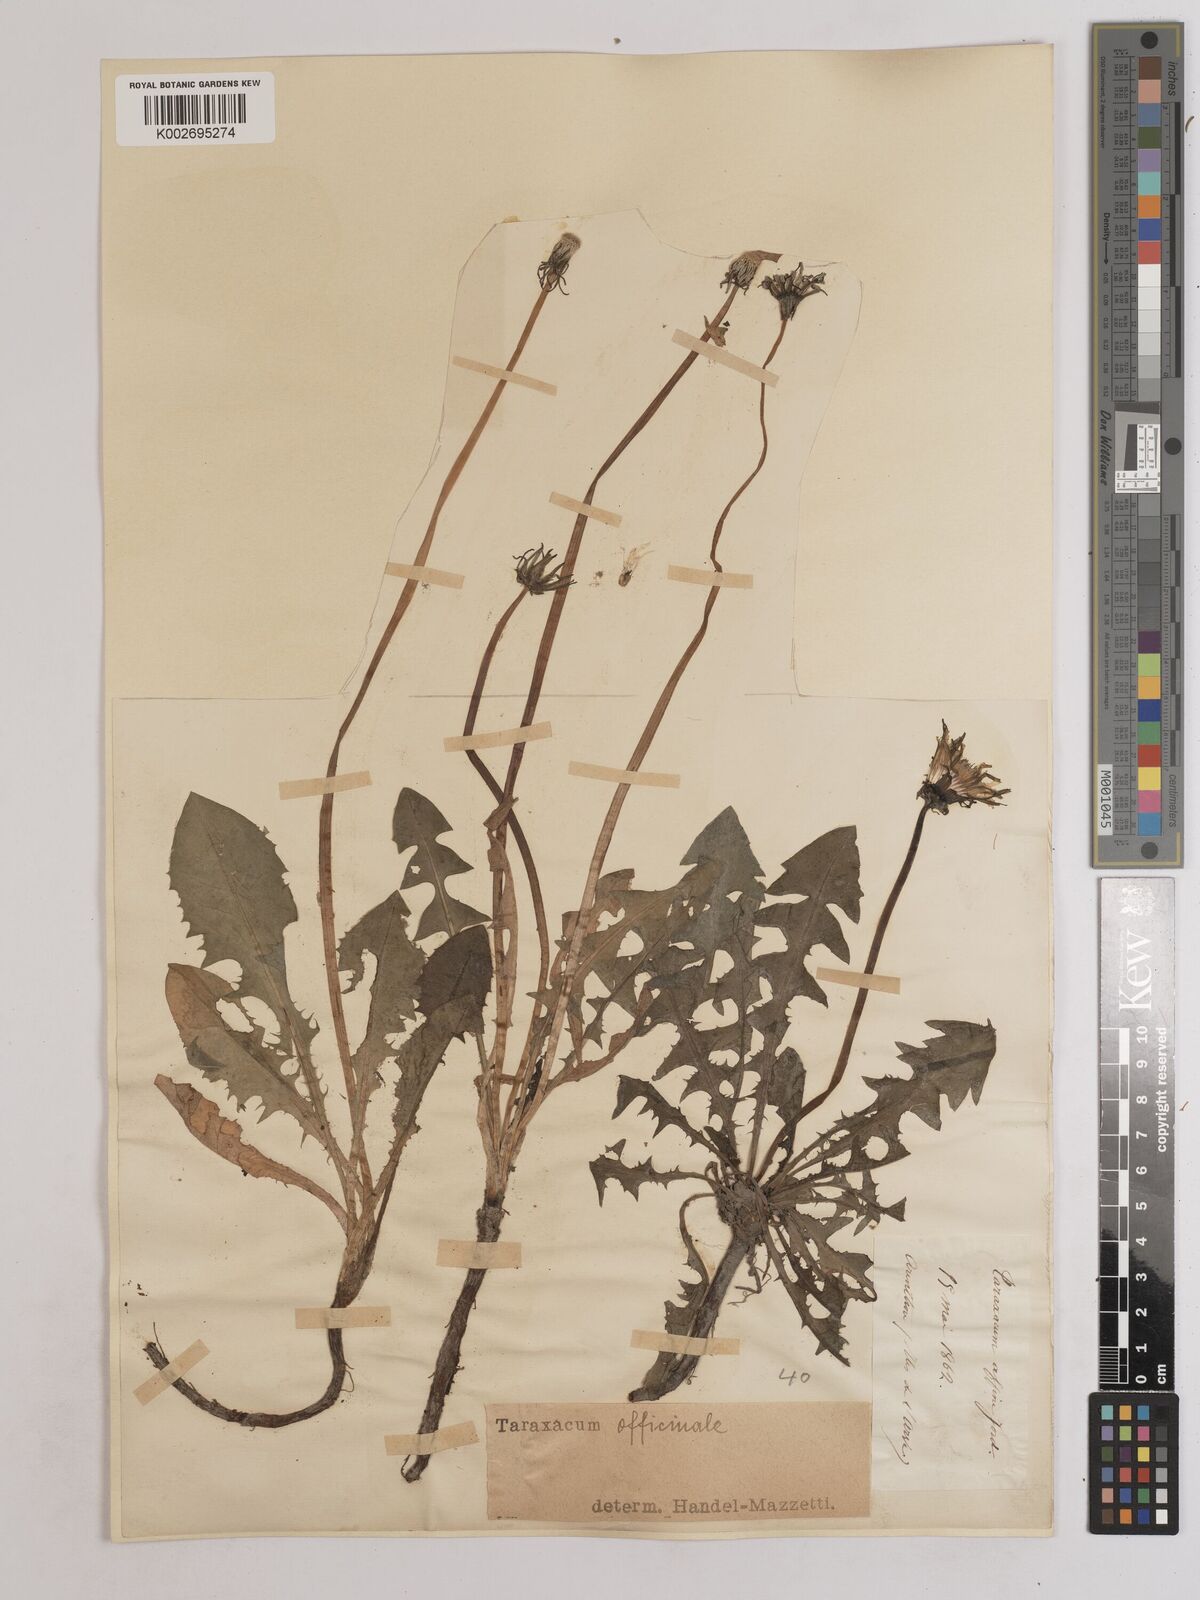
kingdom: Plantae
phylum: Tracheophyta
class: Magnoliopsida
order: Asterales
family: Asteraceae
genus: Taraxacum
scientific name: Taraxacum officinale
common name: Common dandelion
